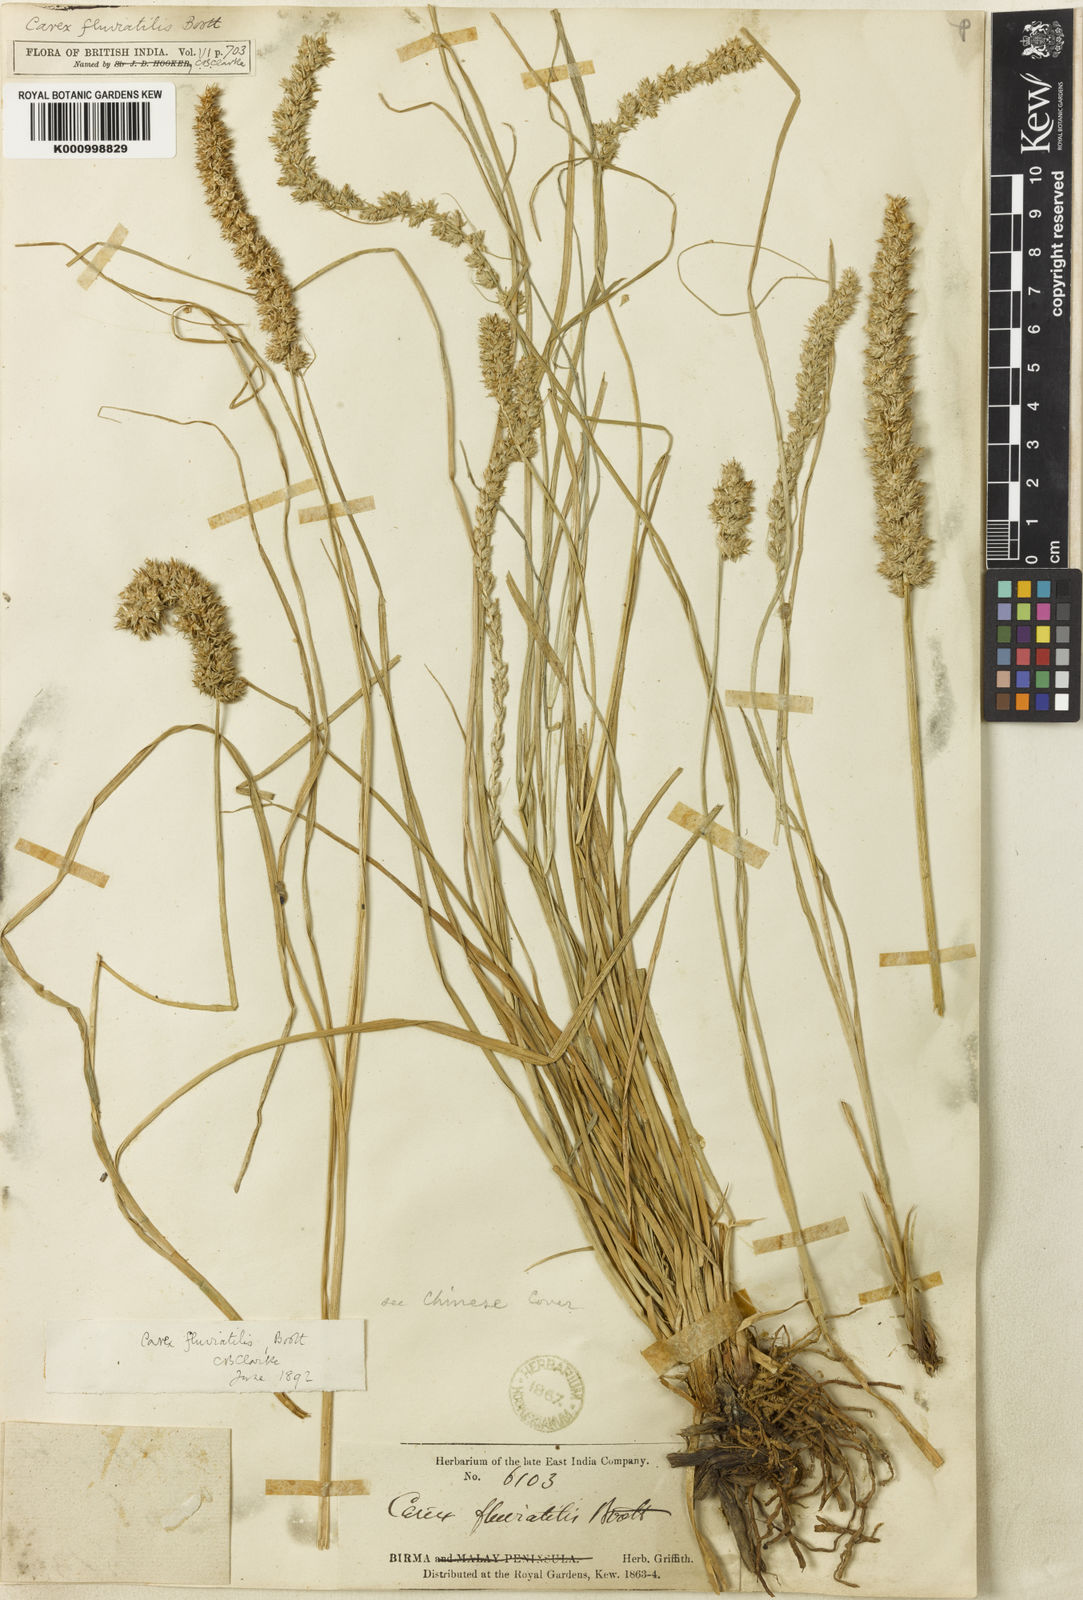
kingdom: Plantae
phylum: Tracheophyta
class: Liliopsida
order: Poales
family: Cyperaceae
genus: Carex
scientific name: Carex fluviatilis
